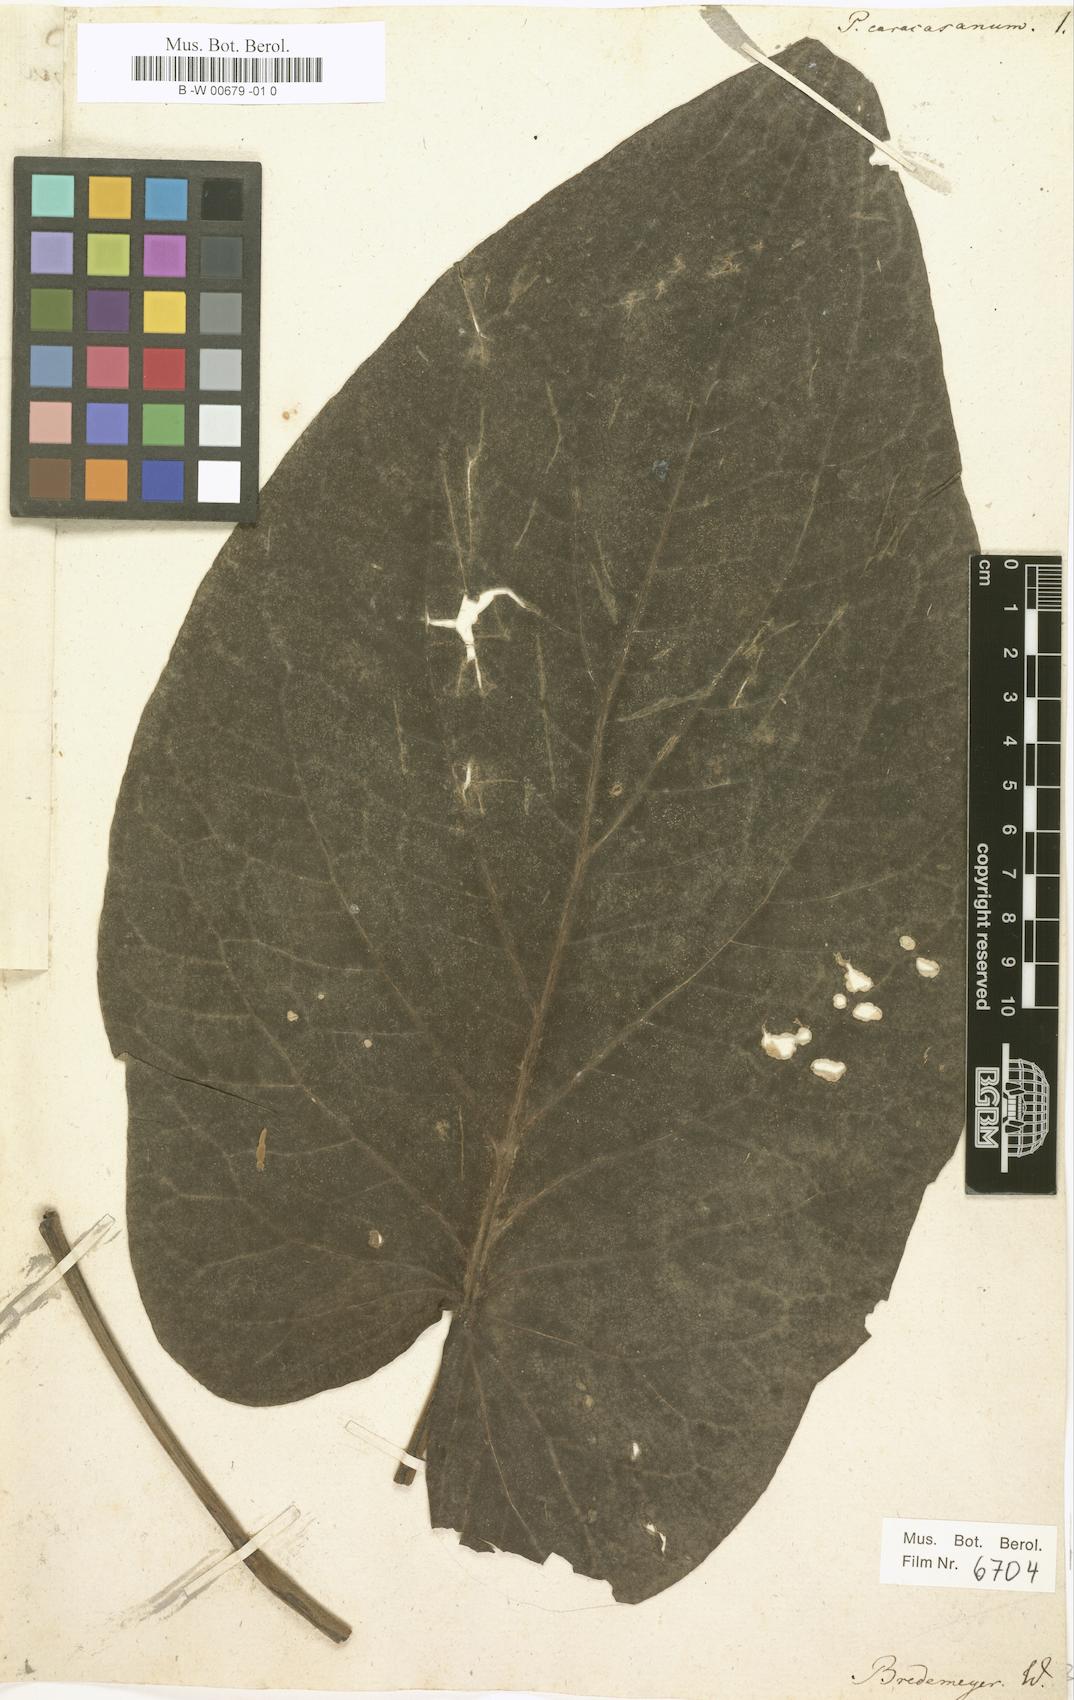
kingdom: Plantae
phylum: Tracheophyta
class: Magnoliopsida
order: Piperales
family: Piperaceae
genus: Piper
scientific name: Piper caracasanum
